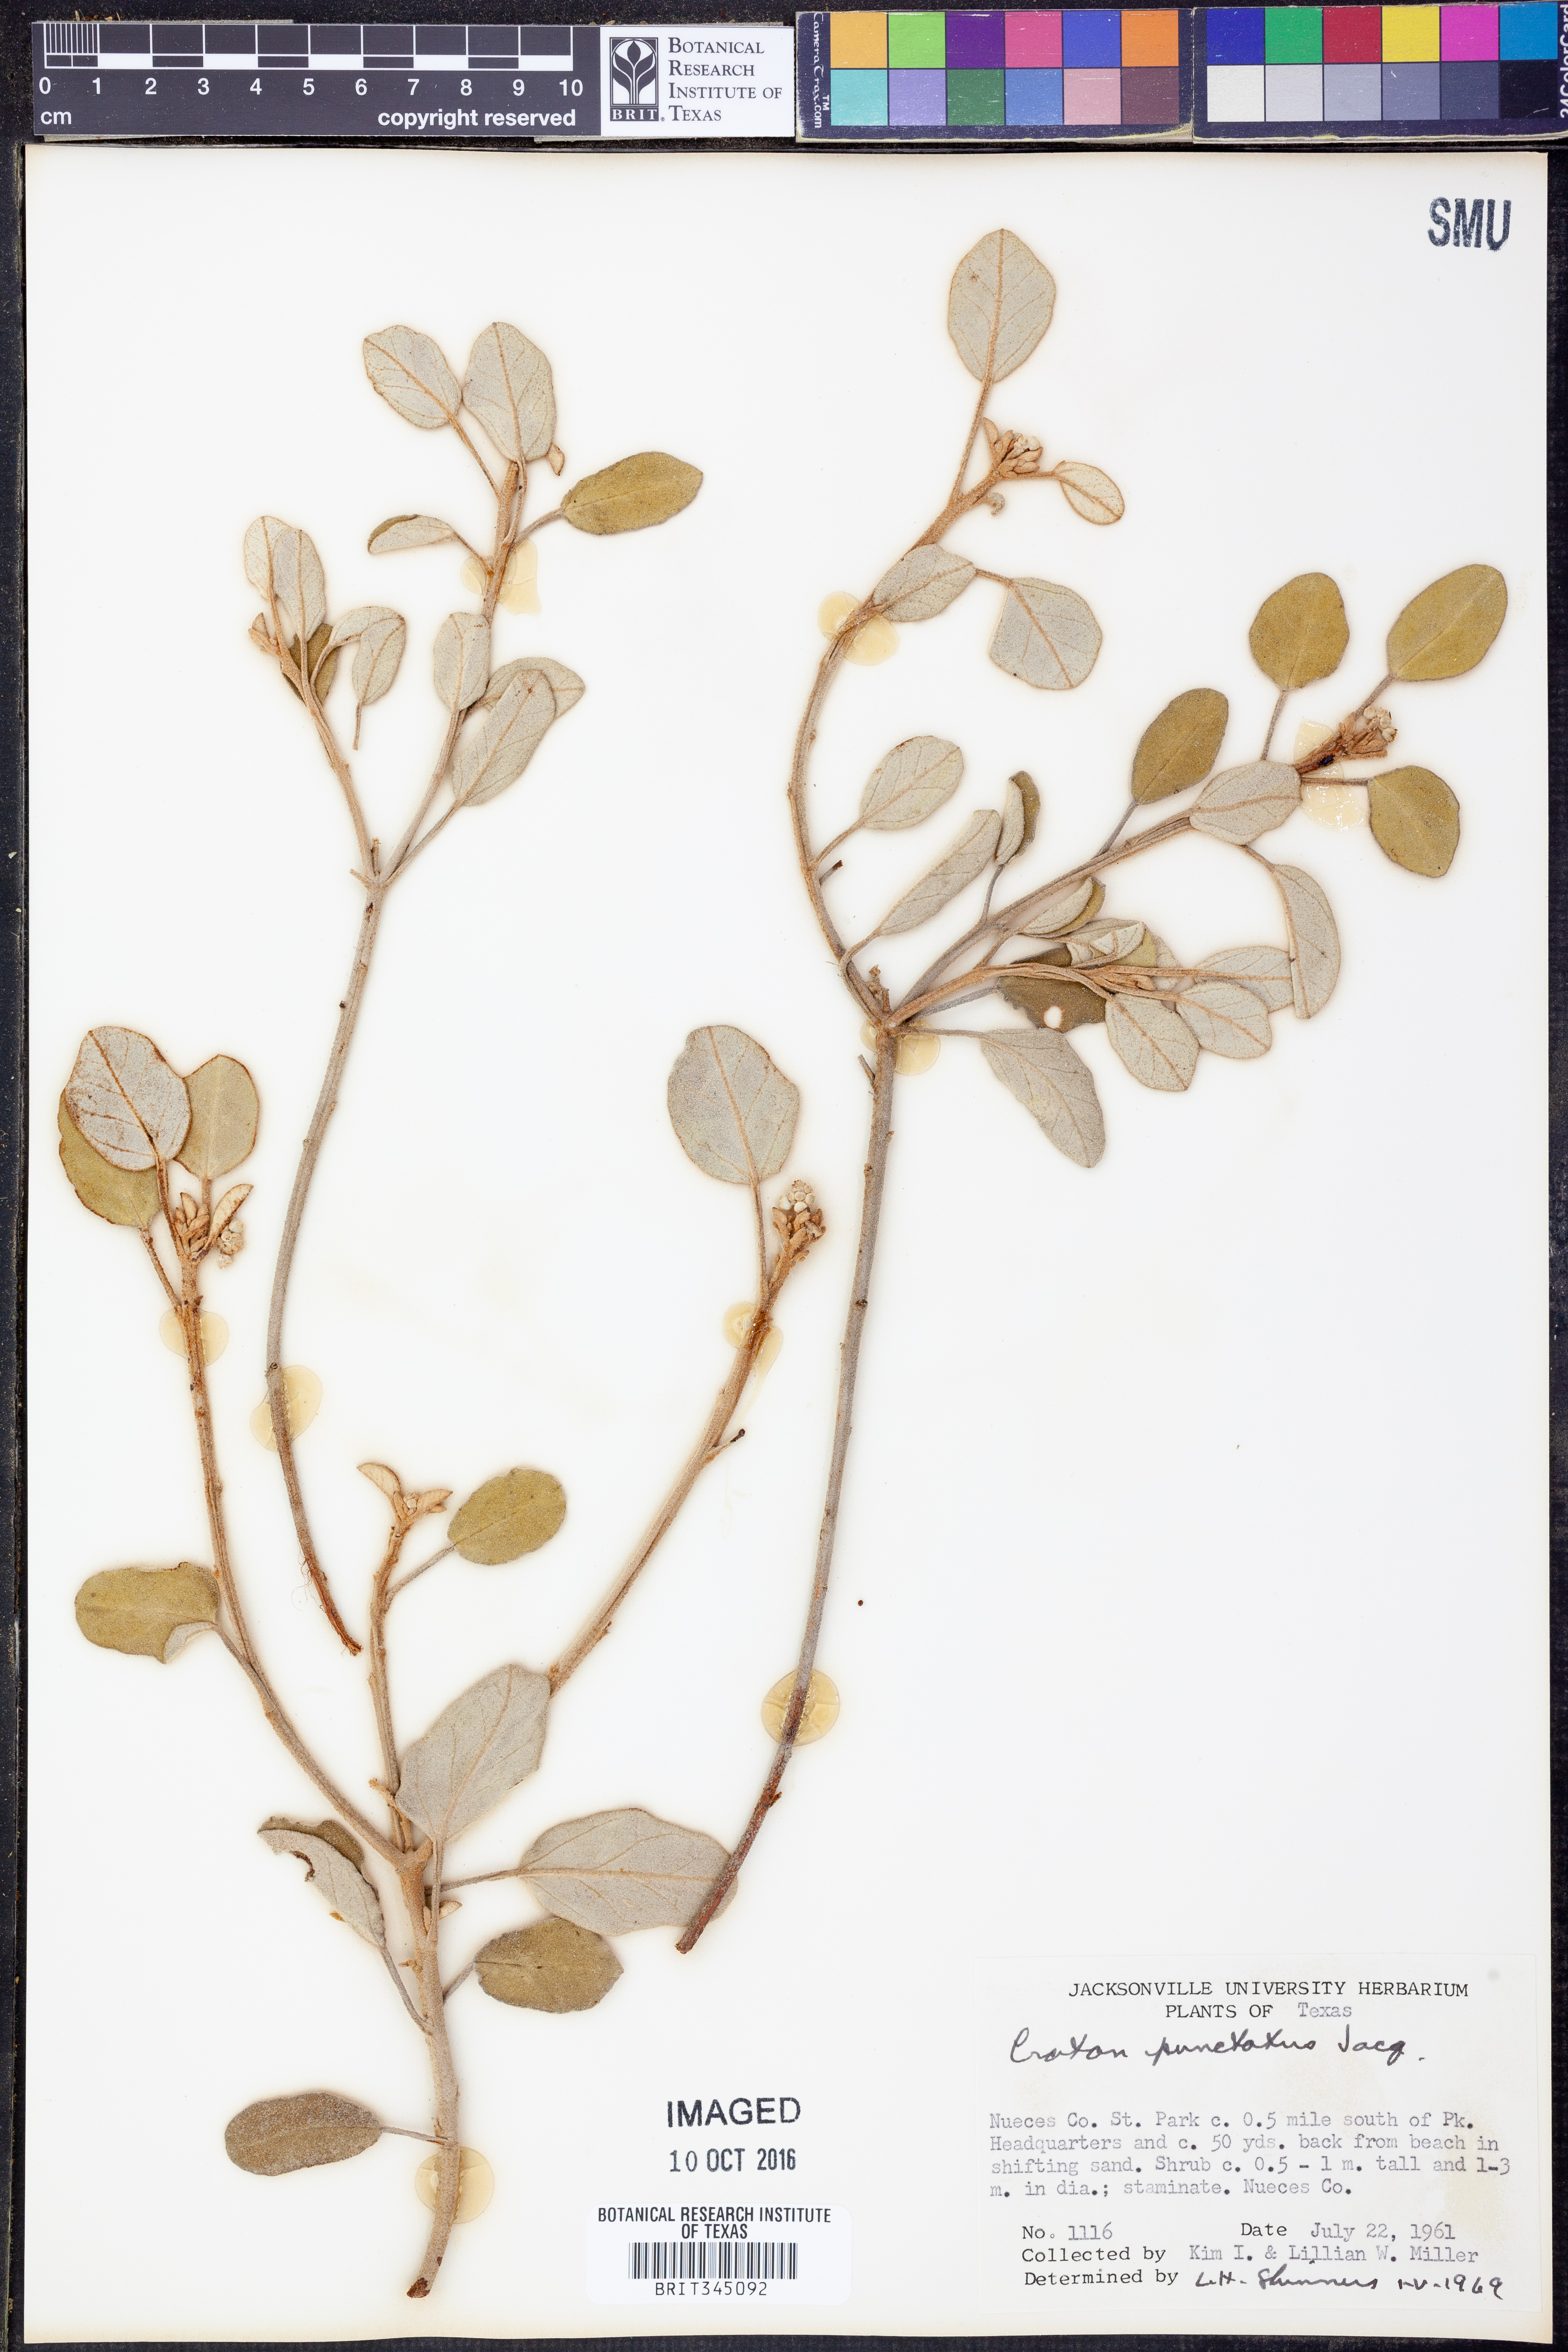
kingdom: Plantae
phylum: Tracheophyta
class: Magnoliopsida
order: Malpighiales
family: Euphorbiaceae
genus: Croton
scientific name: Croton punctatus
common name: Beach-tea
